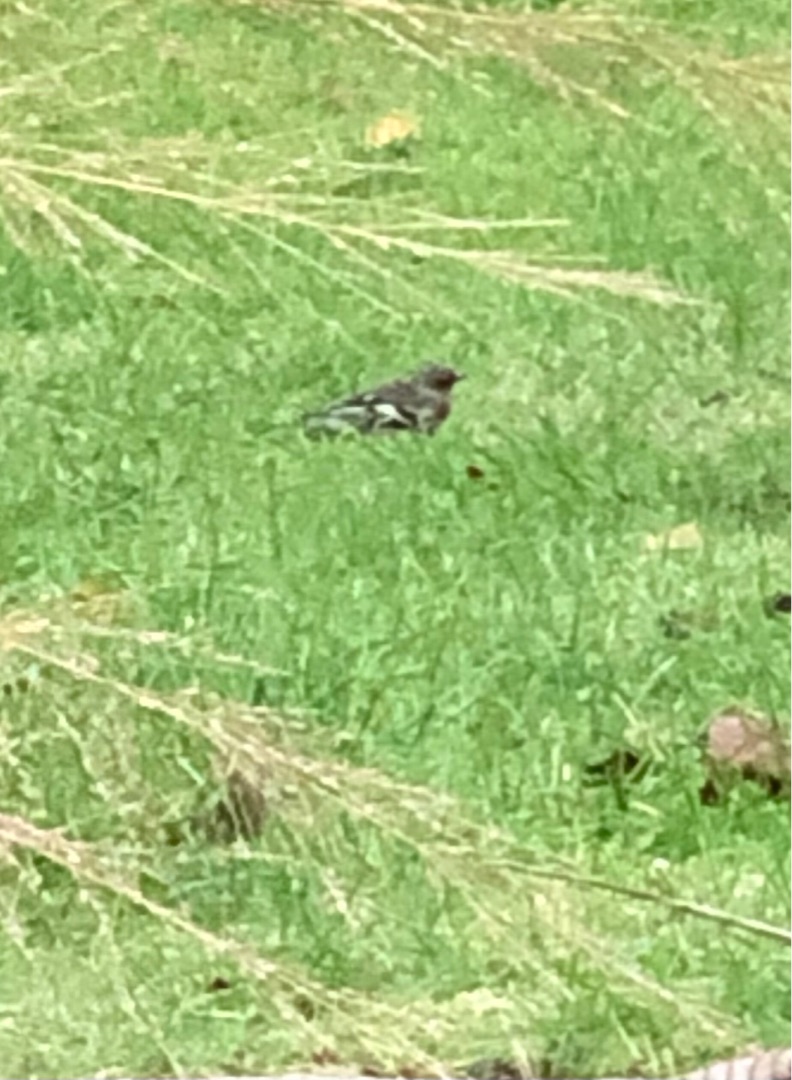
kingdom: Animalia
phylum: Chordata
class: Aves
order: Passeriformes
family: Fringillidae
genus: Fringilla
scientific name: Fringilla coelebs
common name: Bogfinke
